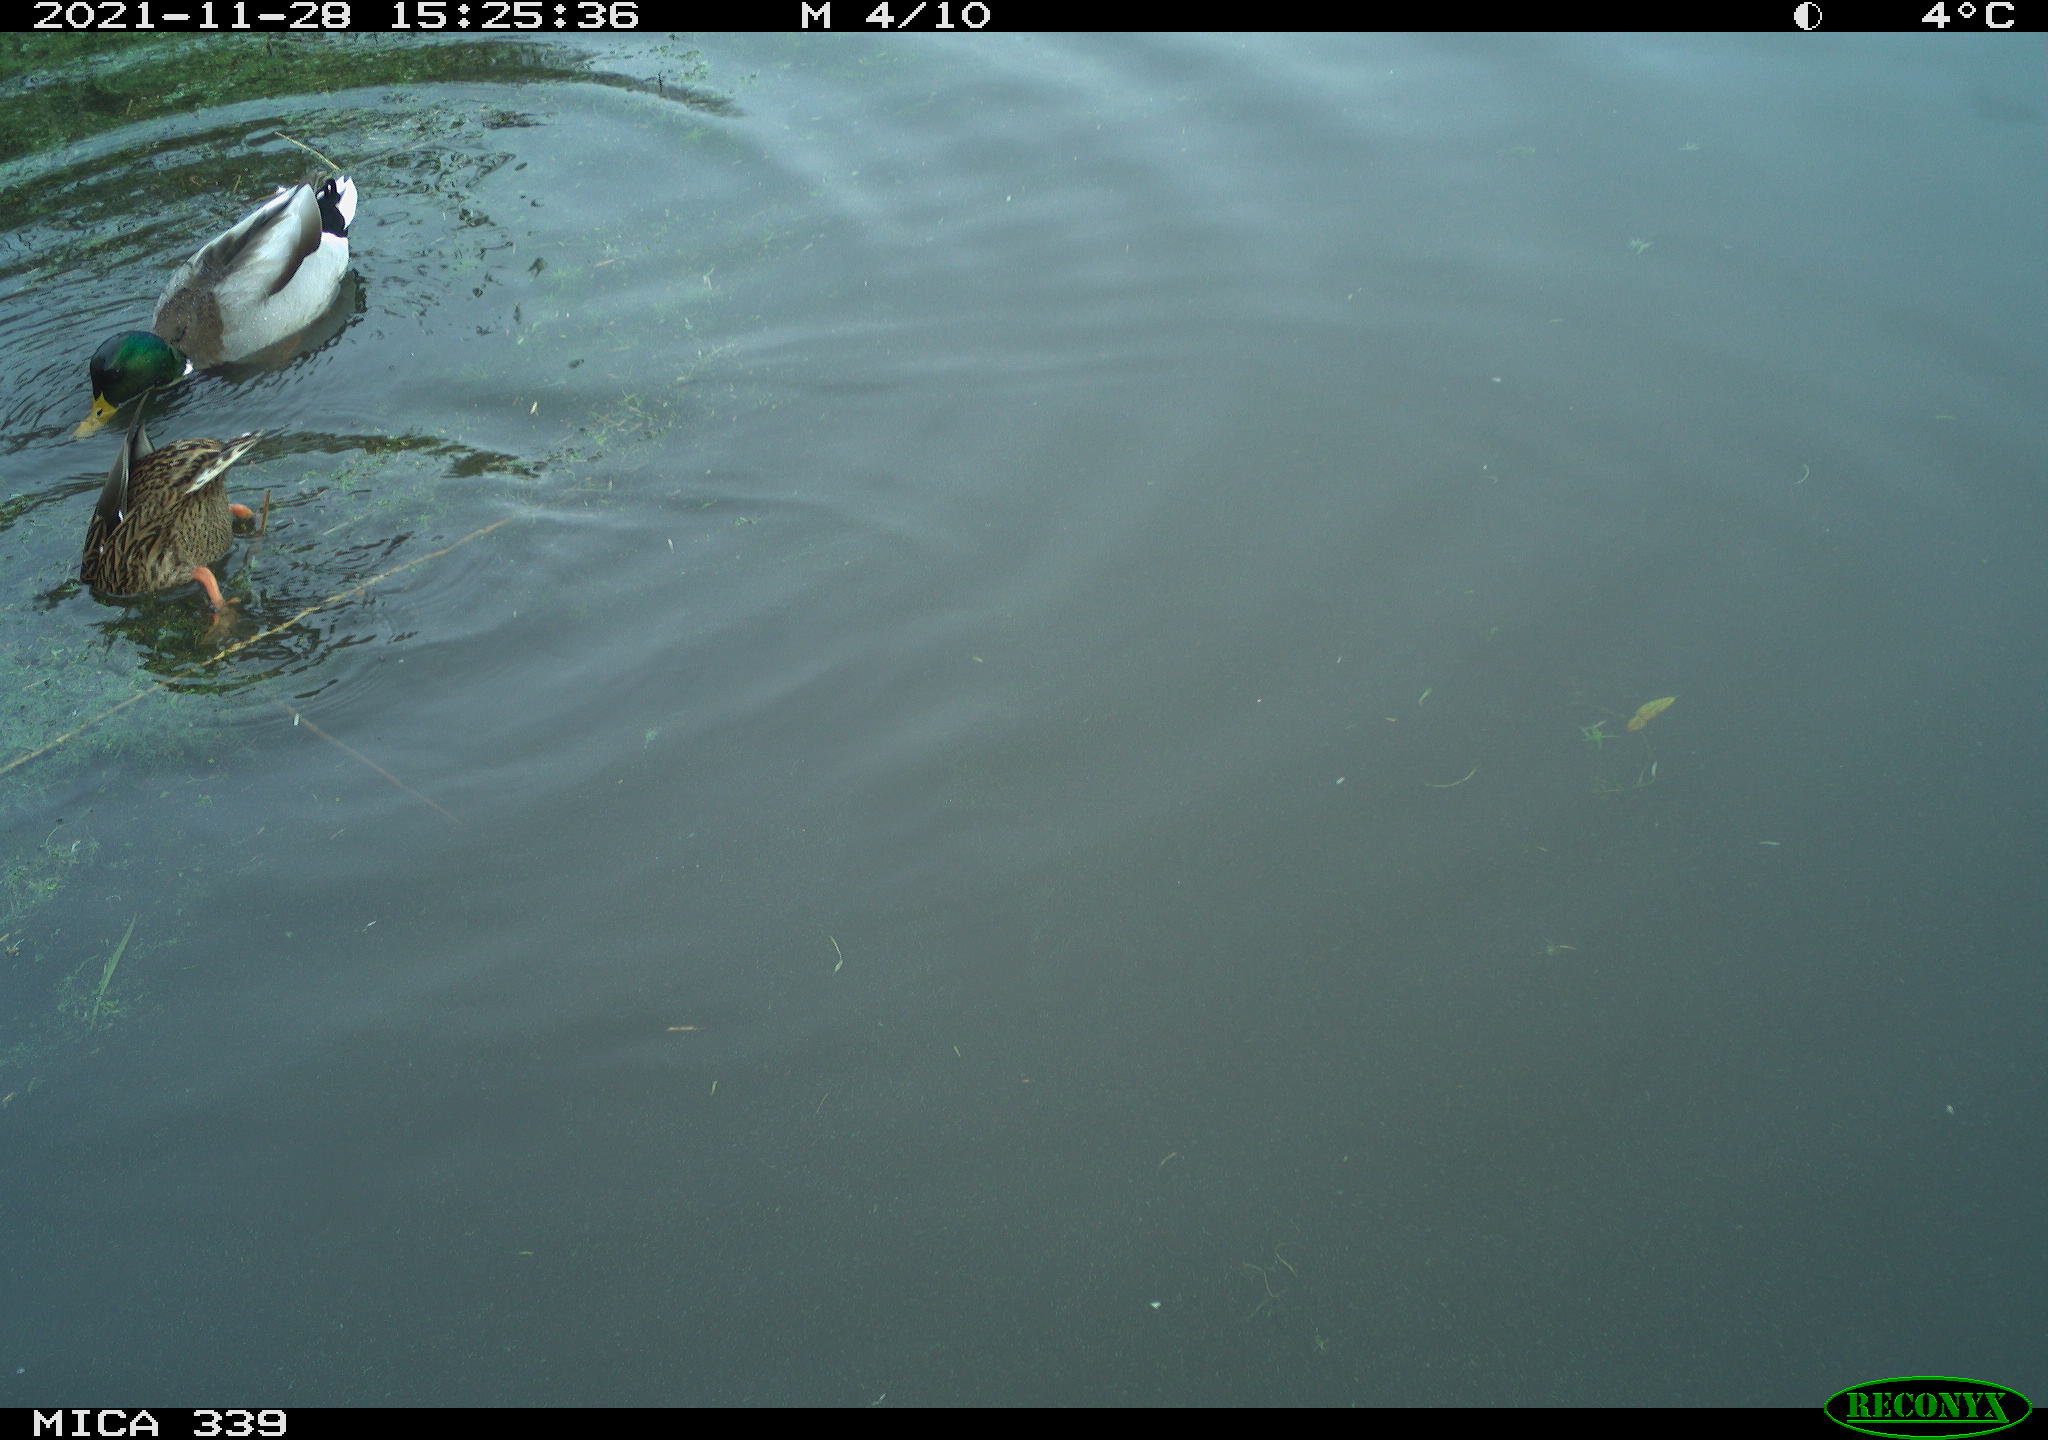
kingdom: Animalia
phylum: Chordata
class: Aves
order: Anseriformes
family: Anatidae
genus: Anas
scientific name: Anas platyrhynchos
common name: Mallard
